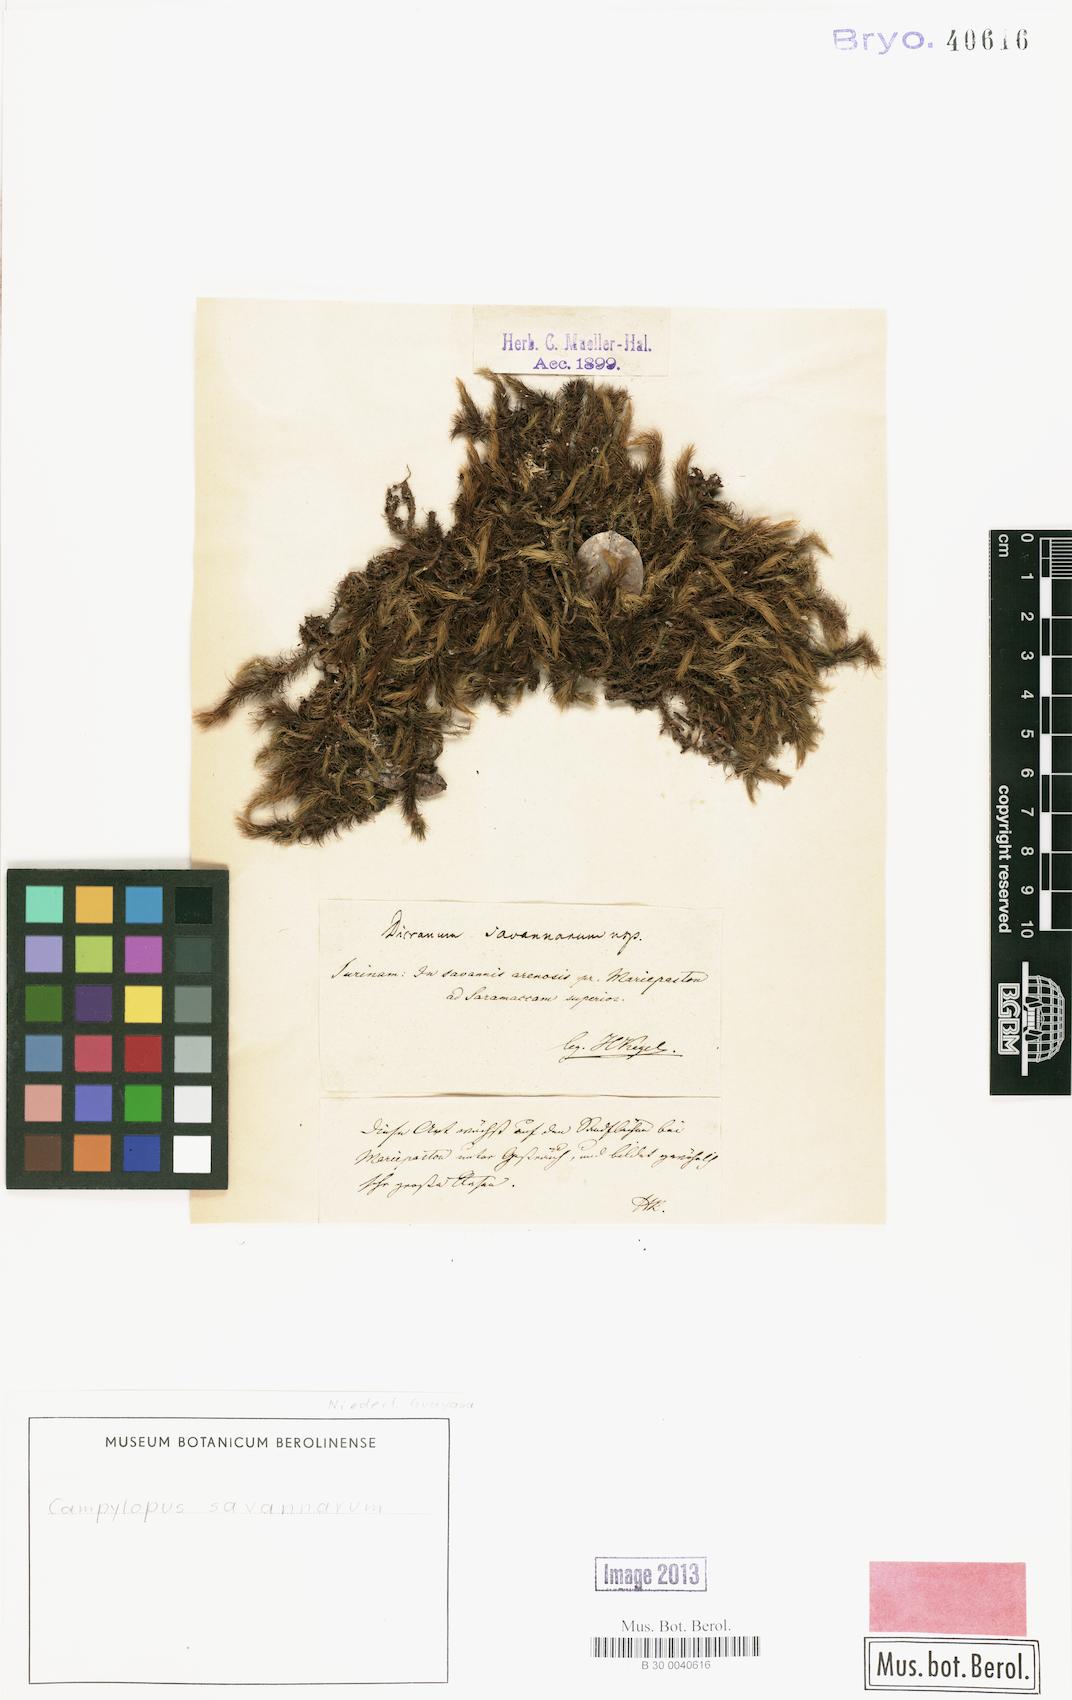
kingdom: Plantae
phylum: Bryophyta
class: Bryopsida
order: Dicranales
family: Leucobryaceae
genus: Campylopus
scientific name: Campylopus savannarum
